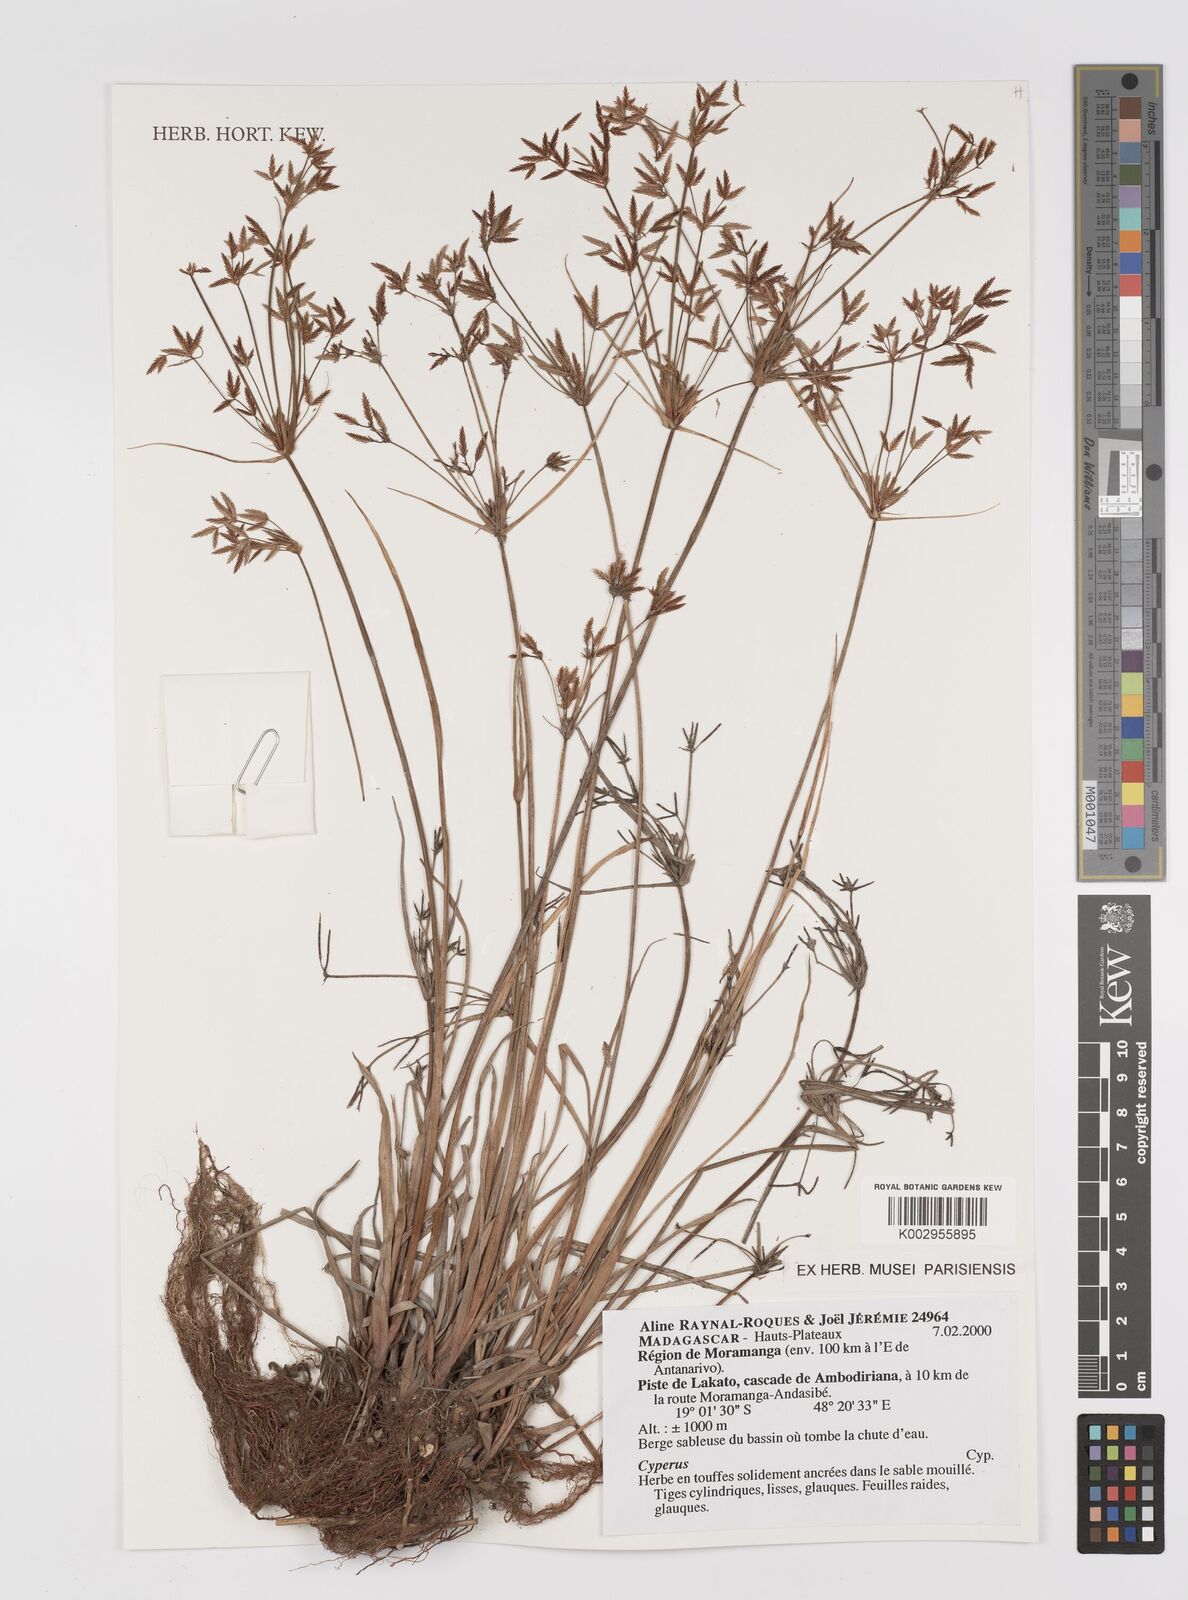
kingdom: Plantae
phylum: Tracheophyta
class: Liliopsida
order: Poales
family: Cyperaceae
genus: Cyperus
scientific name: Cyperus
